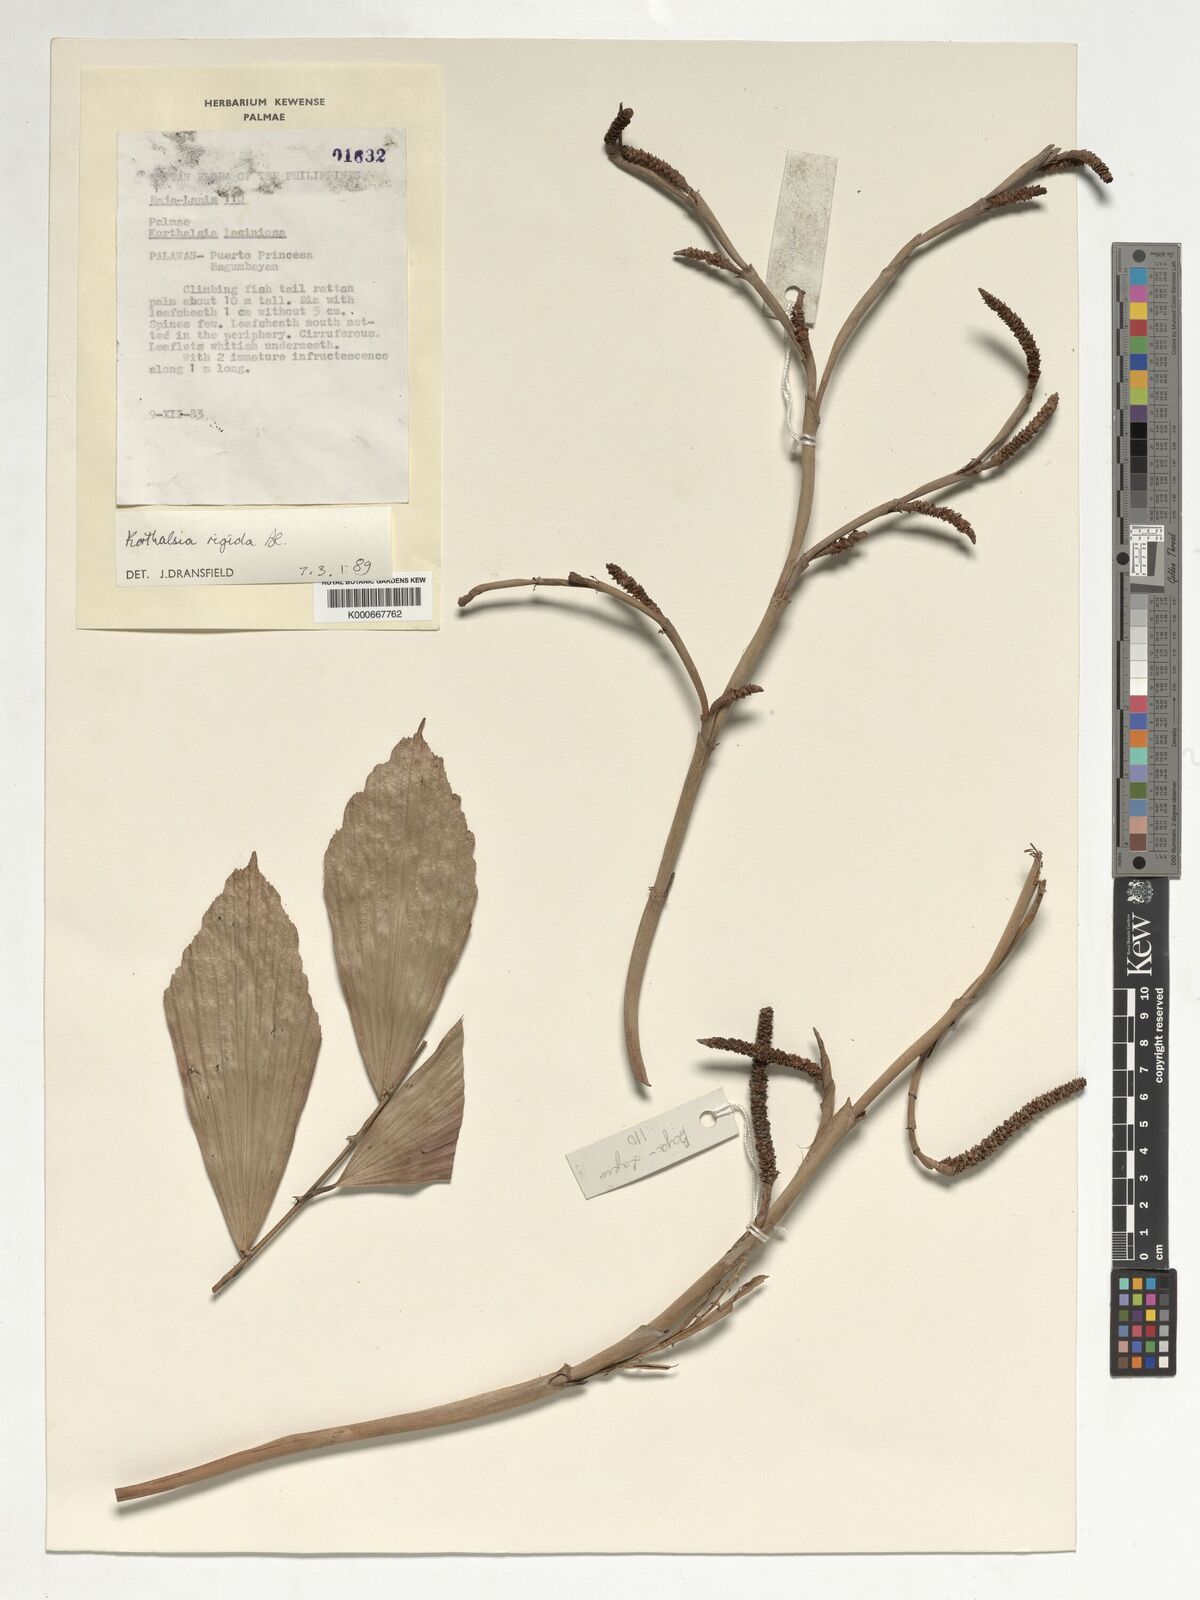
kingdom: Plantae
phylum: Tracheophyta
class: Liliopsida
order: Arecales
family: Arecaceae
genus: Korthalsia
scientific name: Korthalsia rigida
